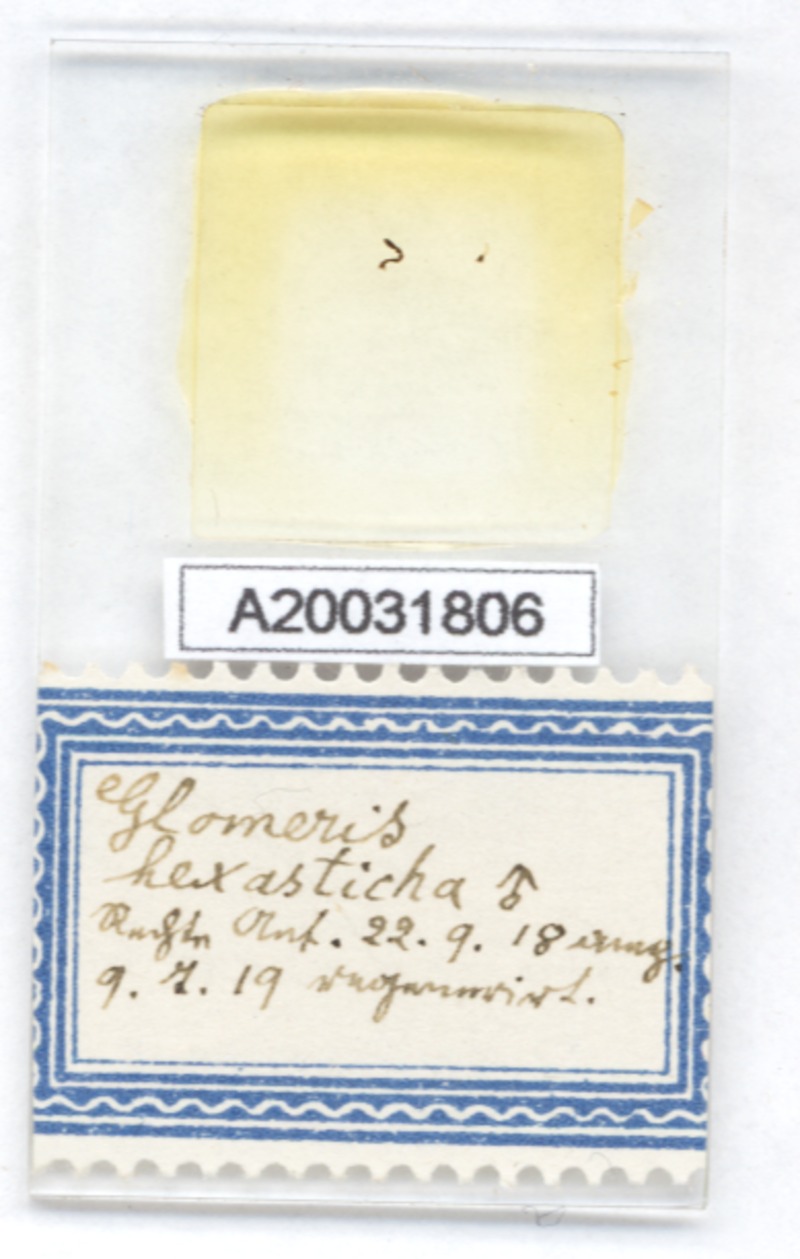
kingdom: Animalia
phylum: Arthropoda
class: Diplopoda
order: Glomerida
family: Glomeridae
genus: Glomeris
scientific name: Glomeris hexasticha
